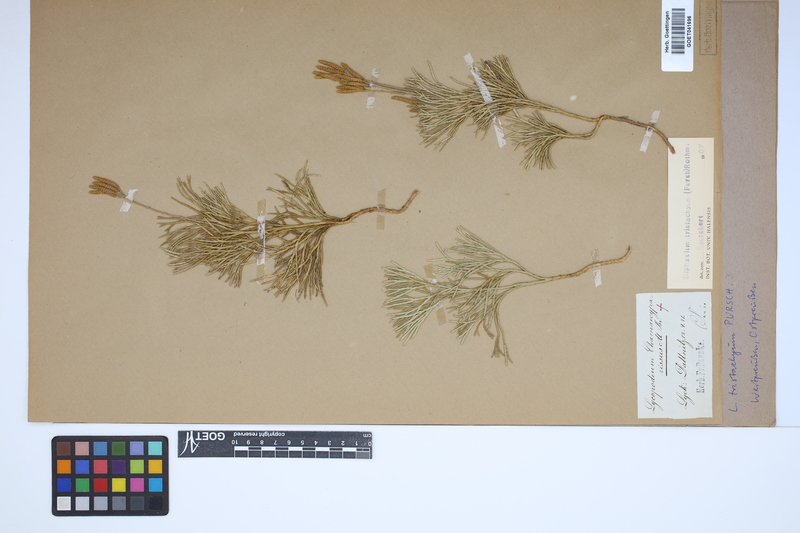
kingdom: Plantae
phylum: Tracheophyta
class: Lycopodiopsida
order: Lycopodiales
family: Lycopodiaceae
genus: Diphasiastrum
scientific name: Diphasiastrum tristachyum
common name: Blue ground-cedar
